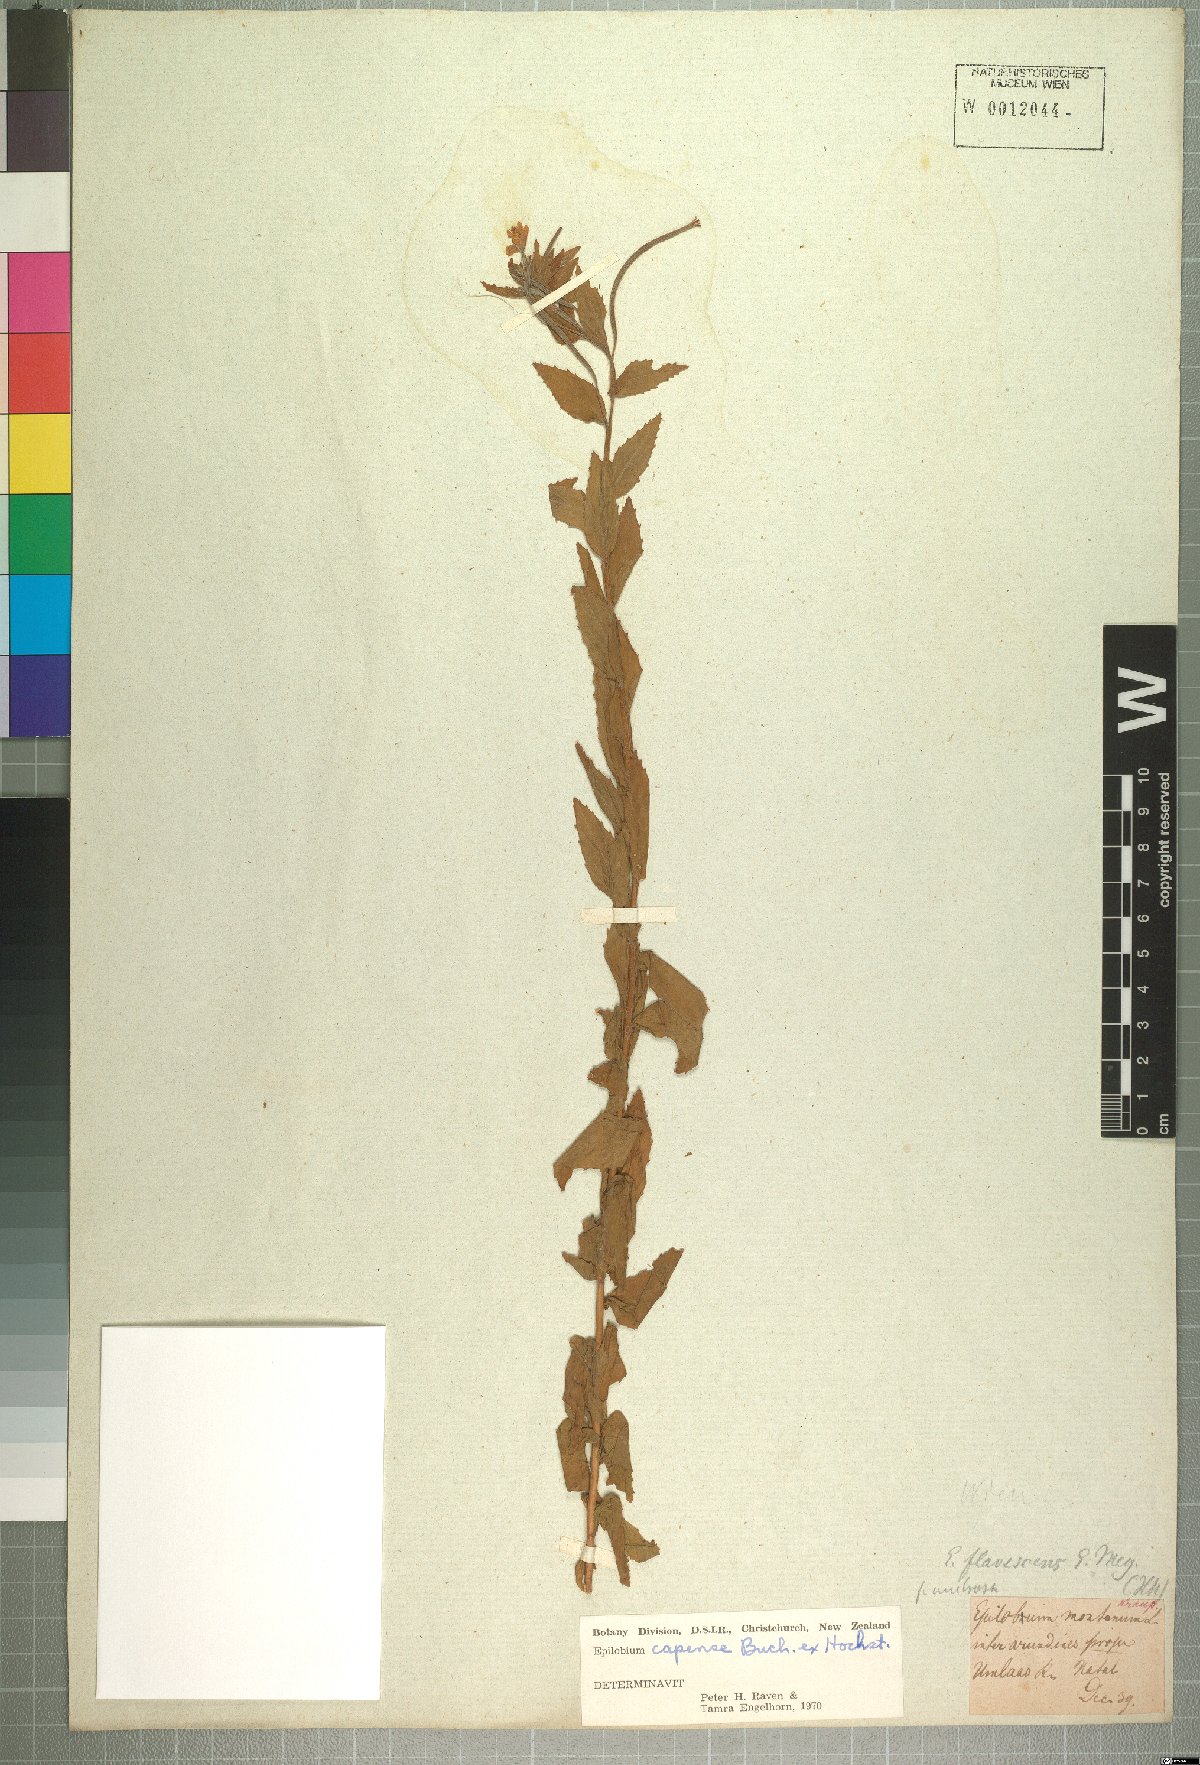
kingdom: Plantae
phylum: Tracheophyta
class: Magnoliopsida
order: Myrtales
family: Onagraceae
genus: Epilobium
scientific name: Epilobium capense
